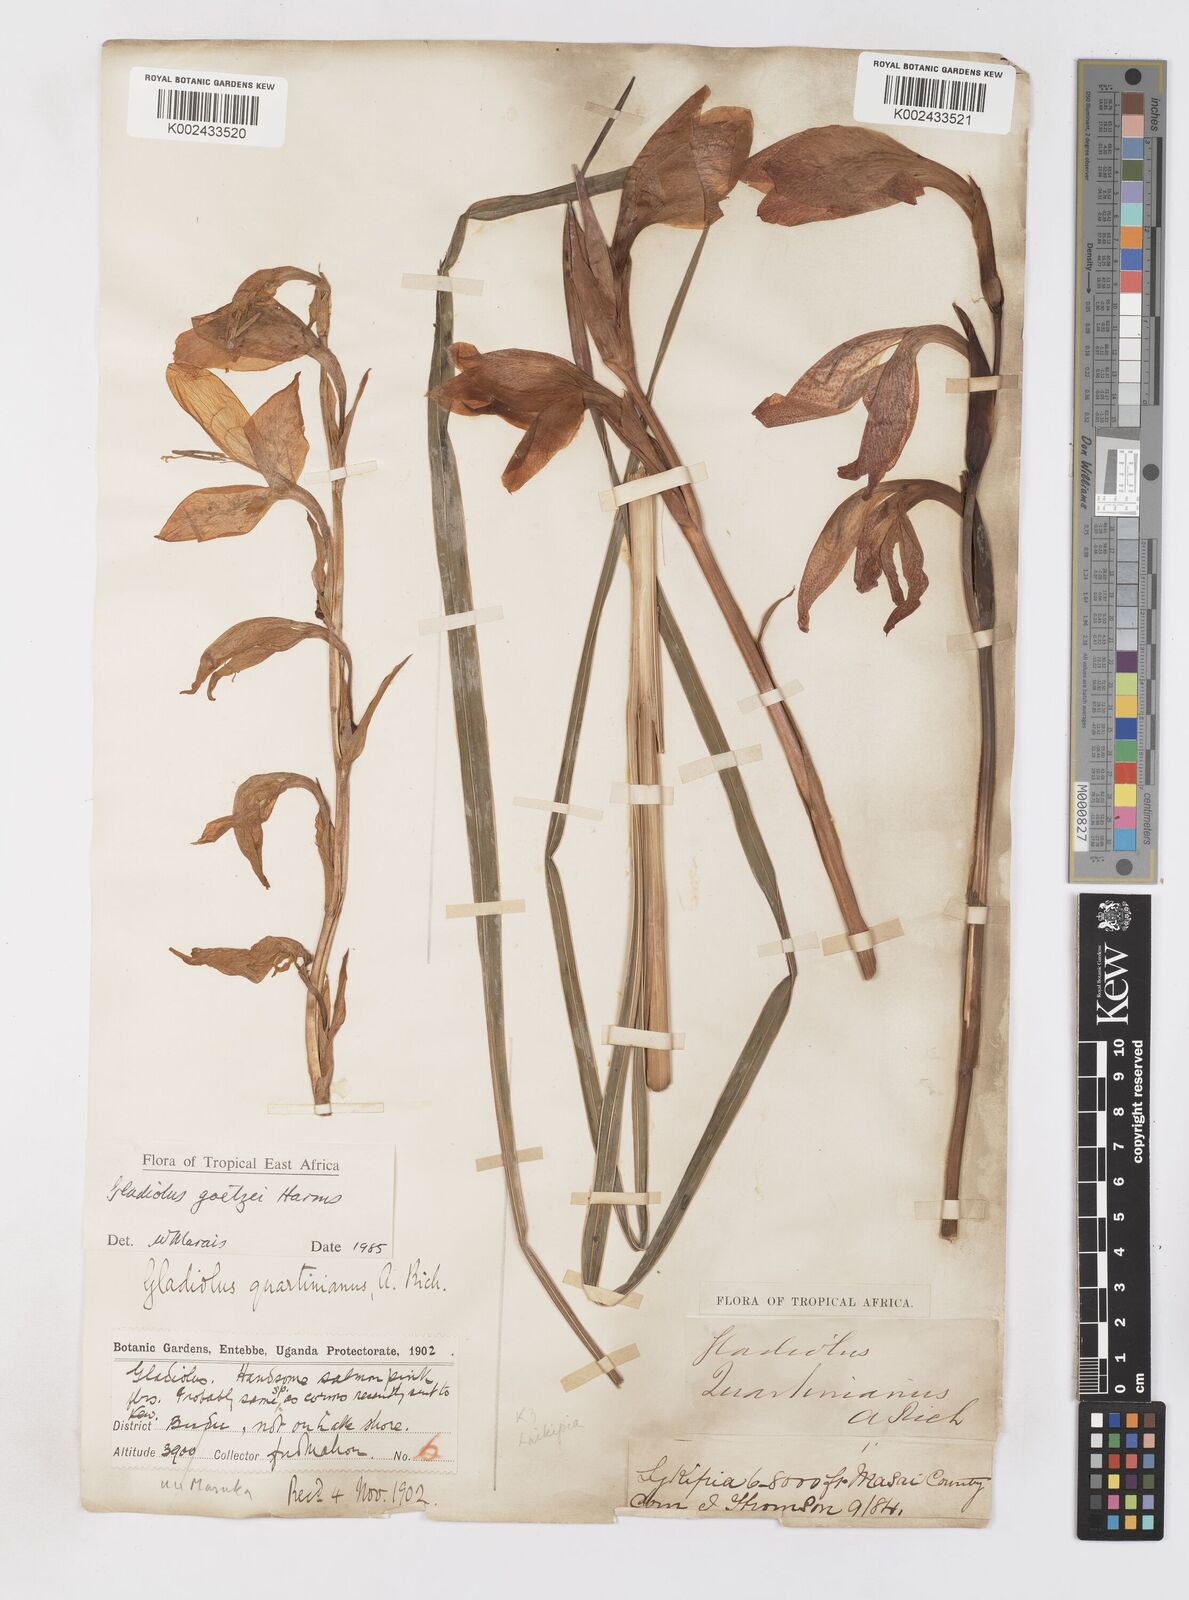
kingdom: Plantae
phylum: Tracheophyta
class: Liliopsida
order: Asparagales
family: Iridaceae
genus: Gladiolus
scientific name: Gladiolus dalenii
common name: Cornflag
